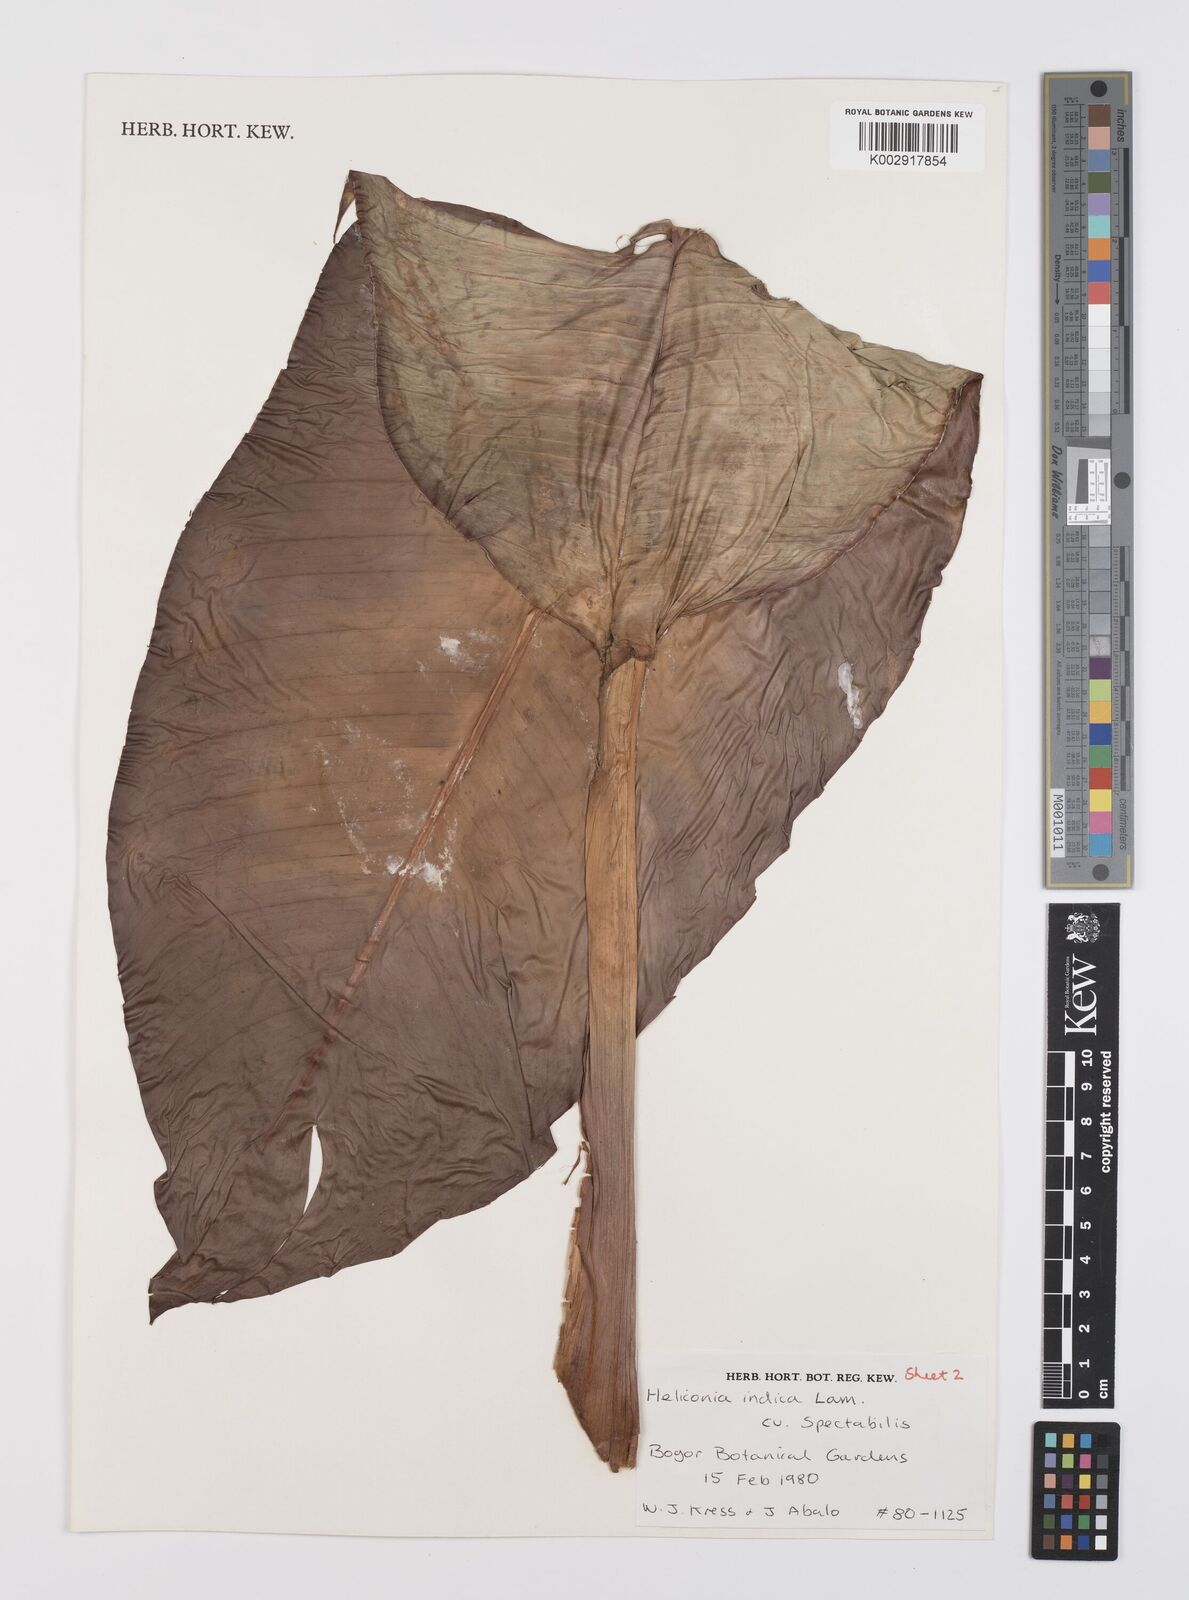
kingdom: Plantae
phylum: Tracheophyta
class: Liliopsida
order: Zingiberales
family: Heliconiaceae
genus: Heliconia
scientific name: Heliconia indica
